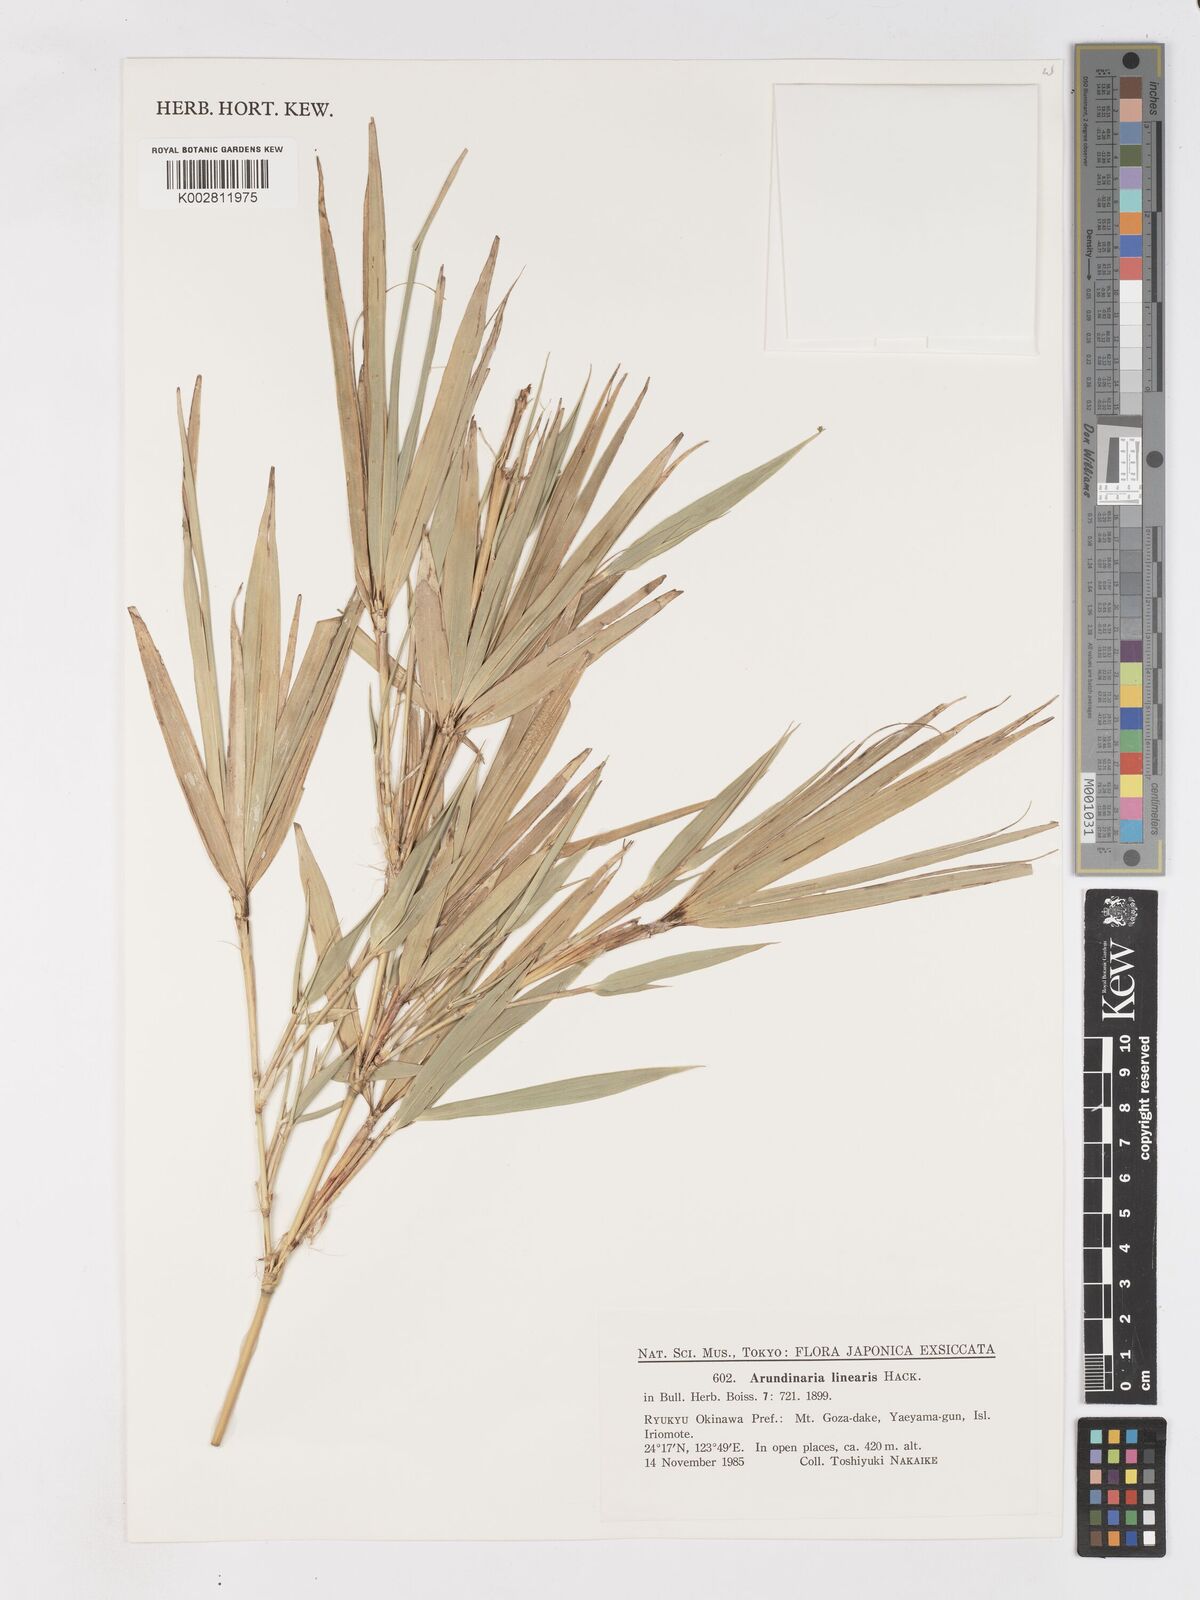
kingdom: Plantae
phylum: Tracheophyta
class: Liliopsida
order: Poales
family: Poaceae
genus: Pleioblastus
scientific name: Pleioblastus linearis
